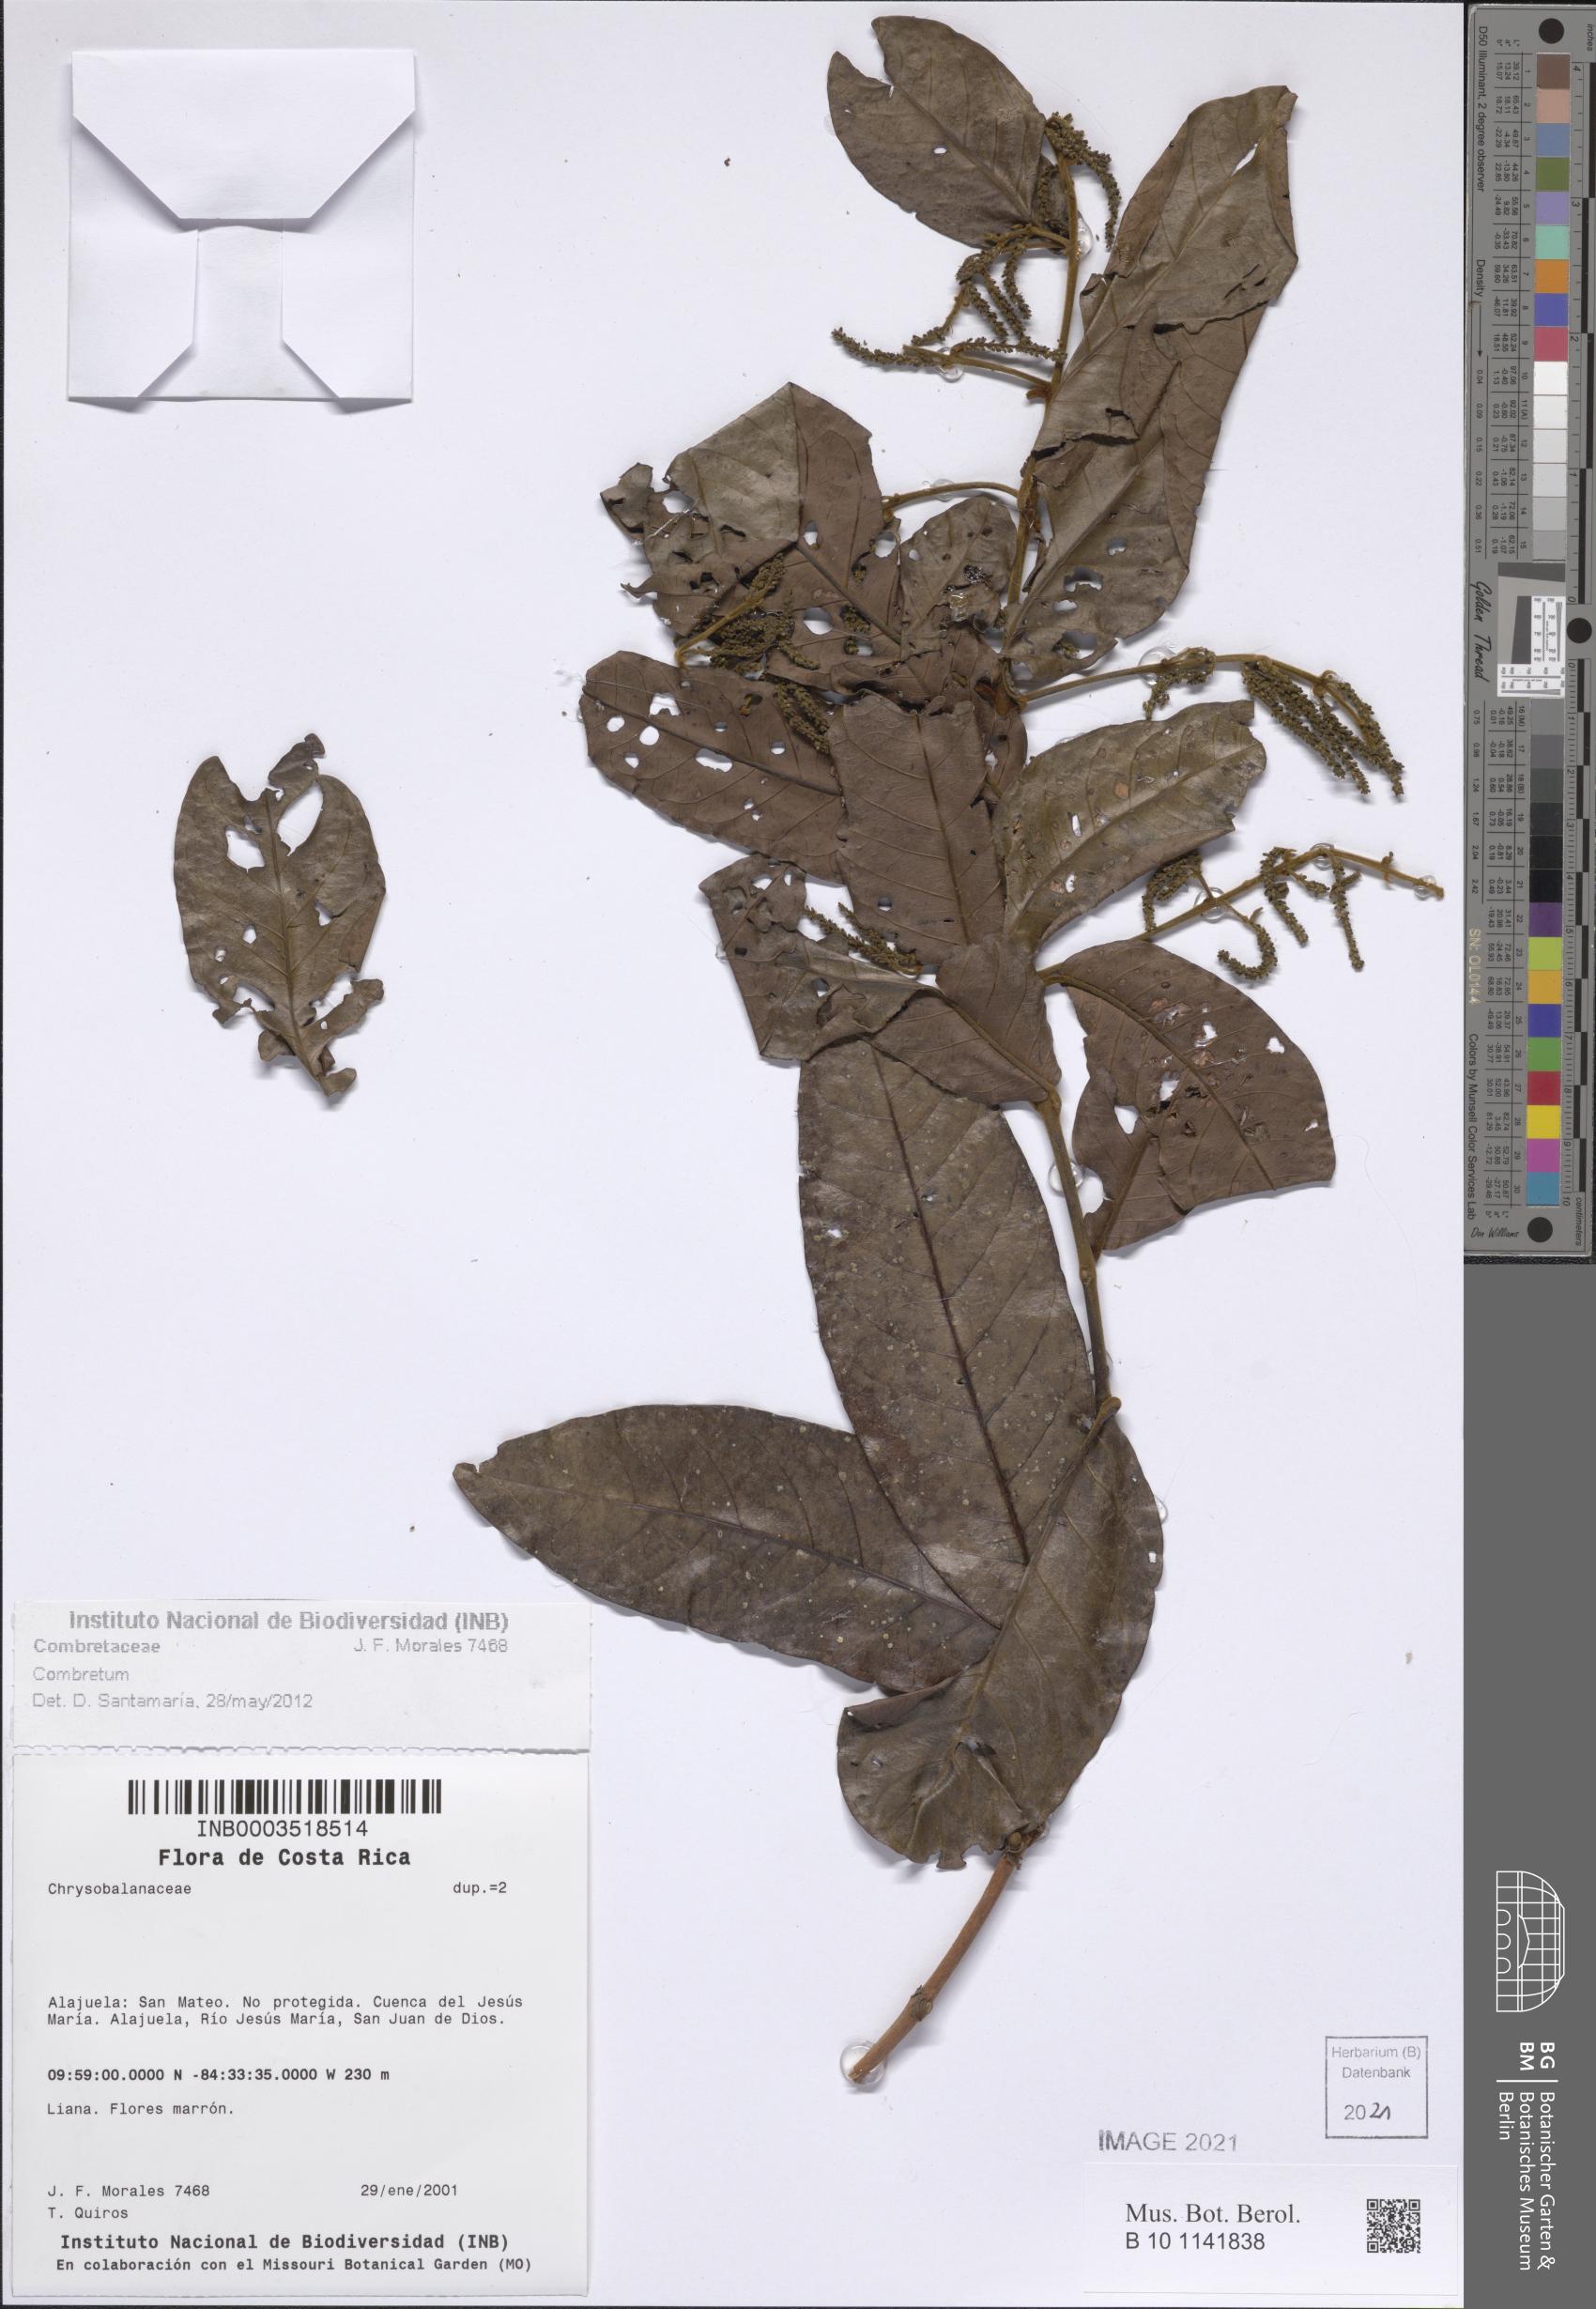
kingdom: Plantae
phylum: Tracheophyta
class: Magnoliopsida
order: Myrtales
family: Combretaceae
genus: Combretum
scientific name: Combretum
